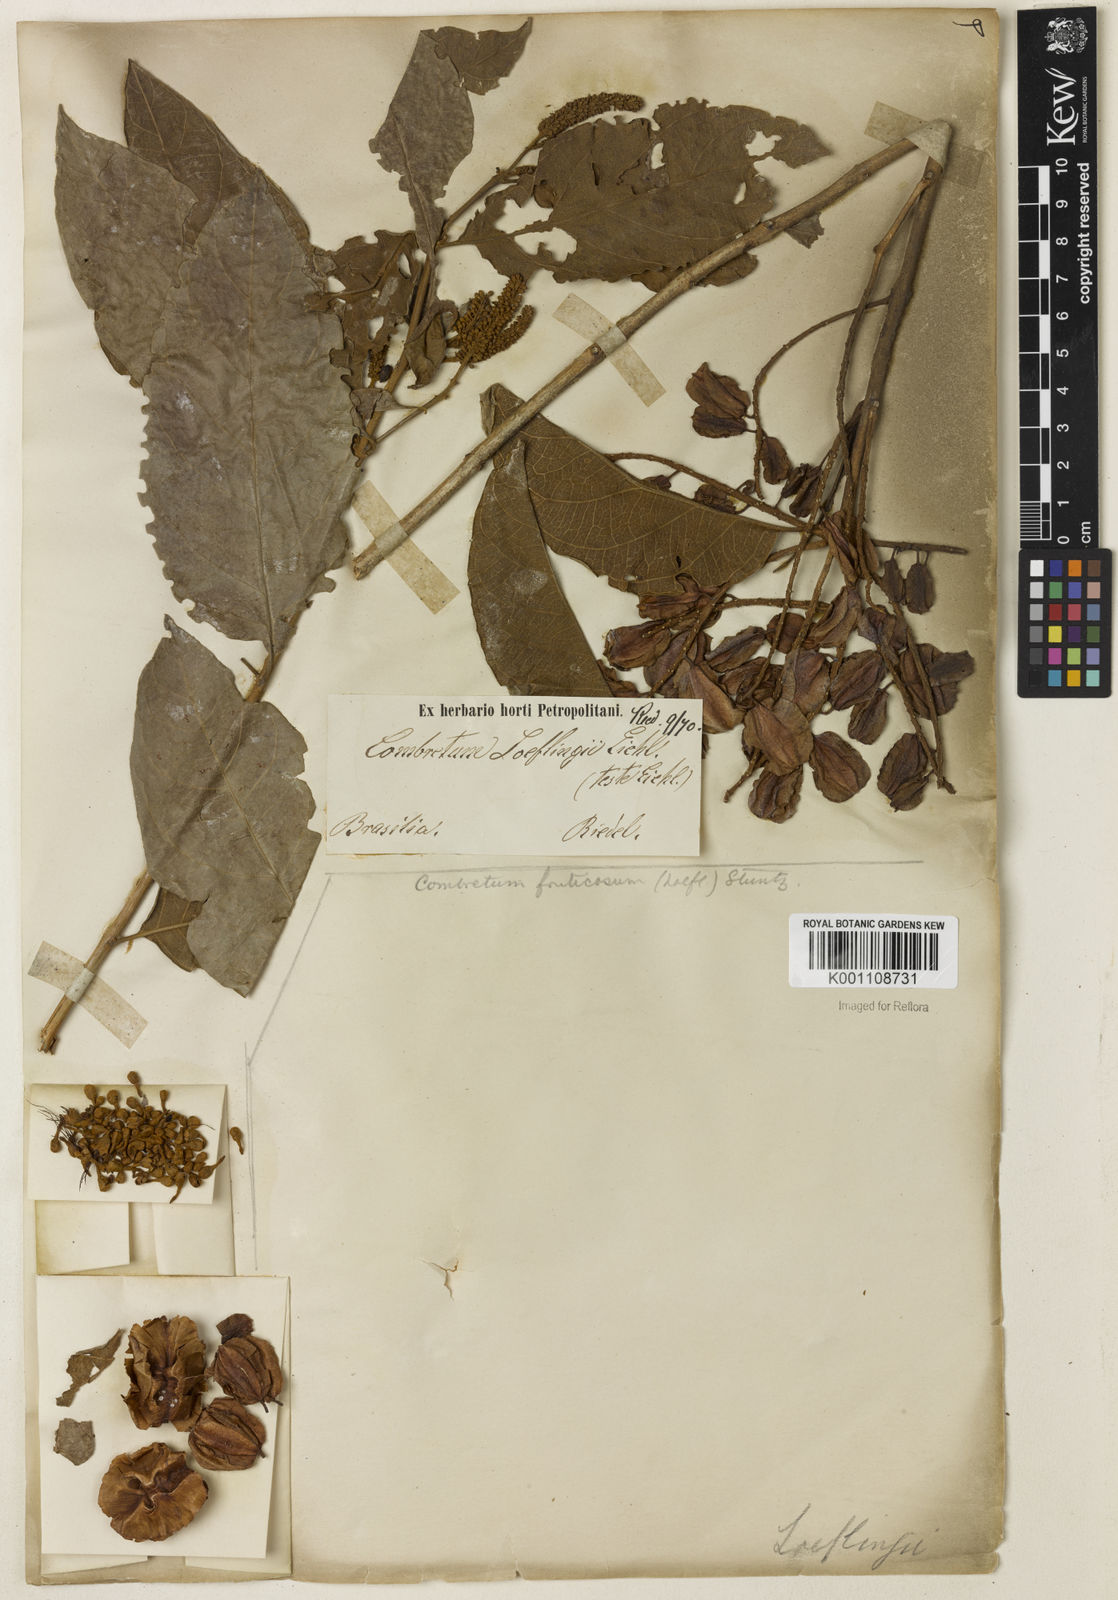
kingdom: Plantae
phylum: Tracheophyta
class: Magnoliopsida
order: Myrtales
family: Combretaceae
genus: Combretum
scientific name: Combretum fruticosum
